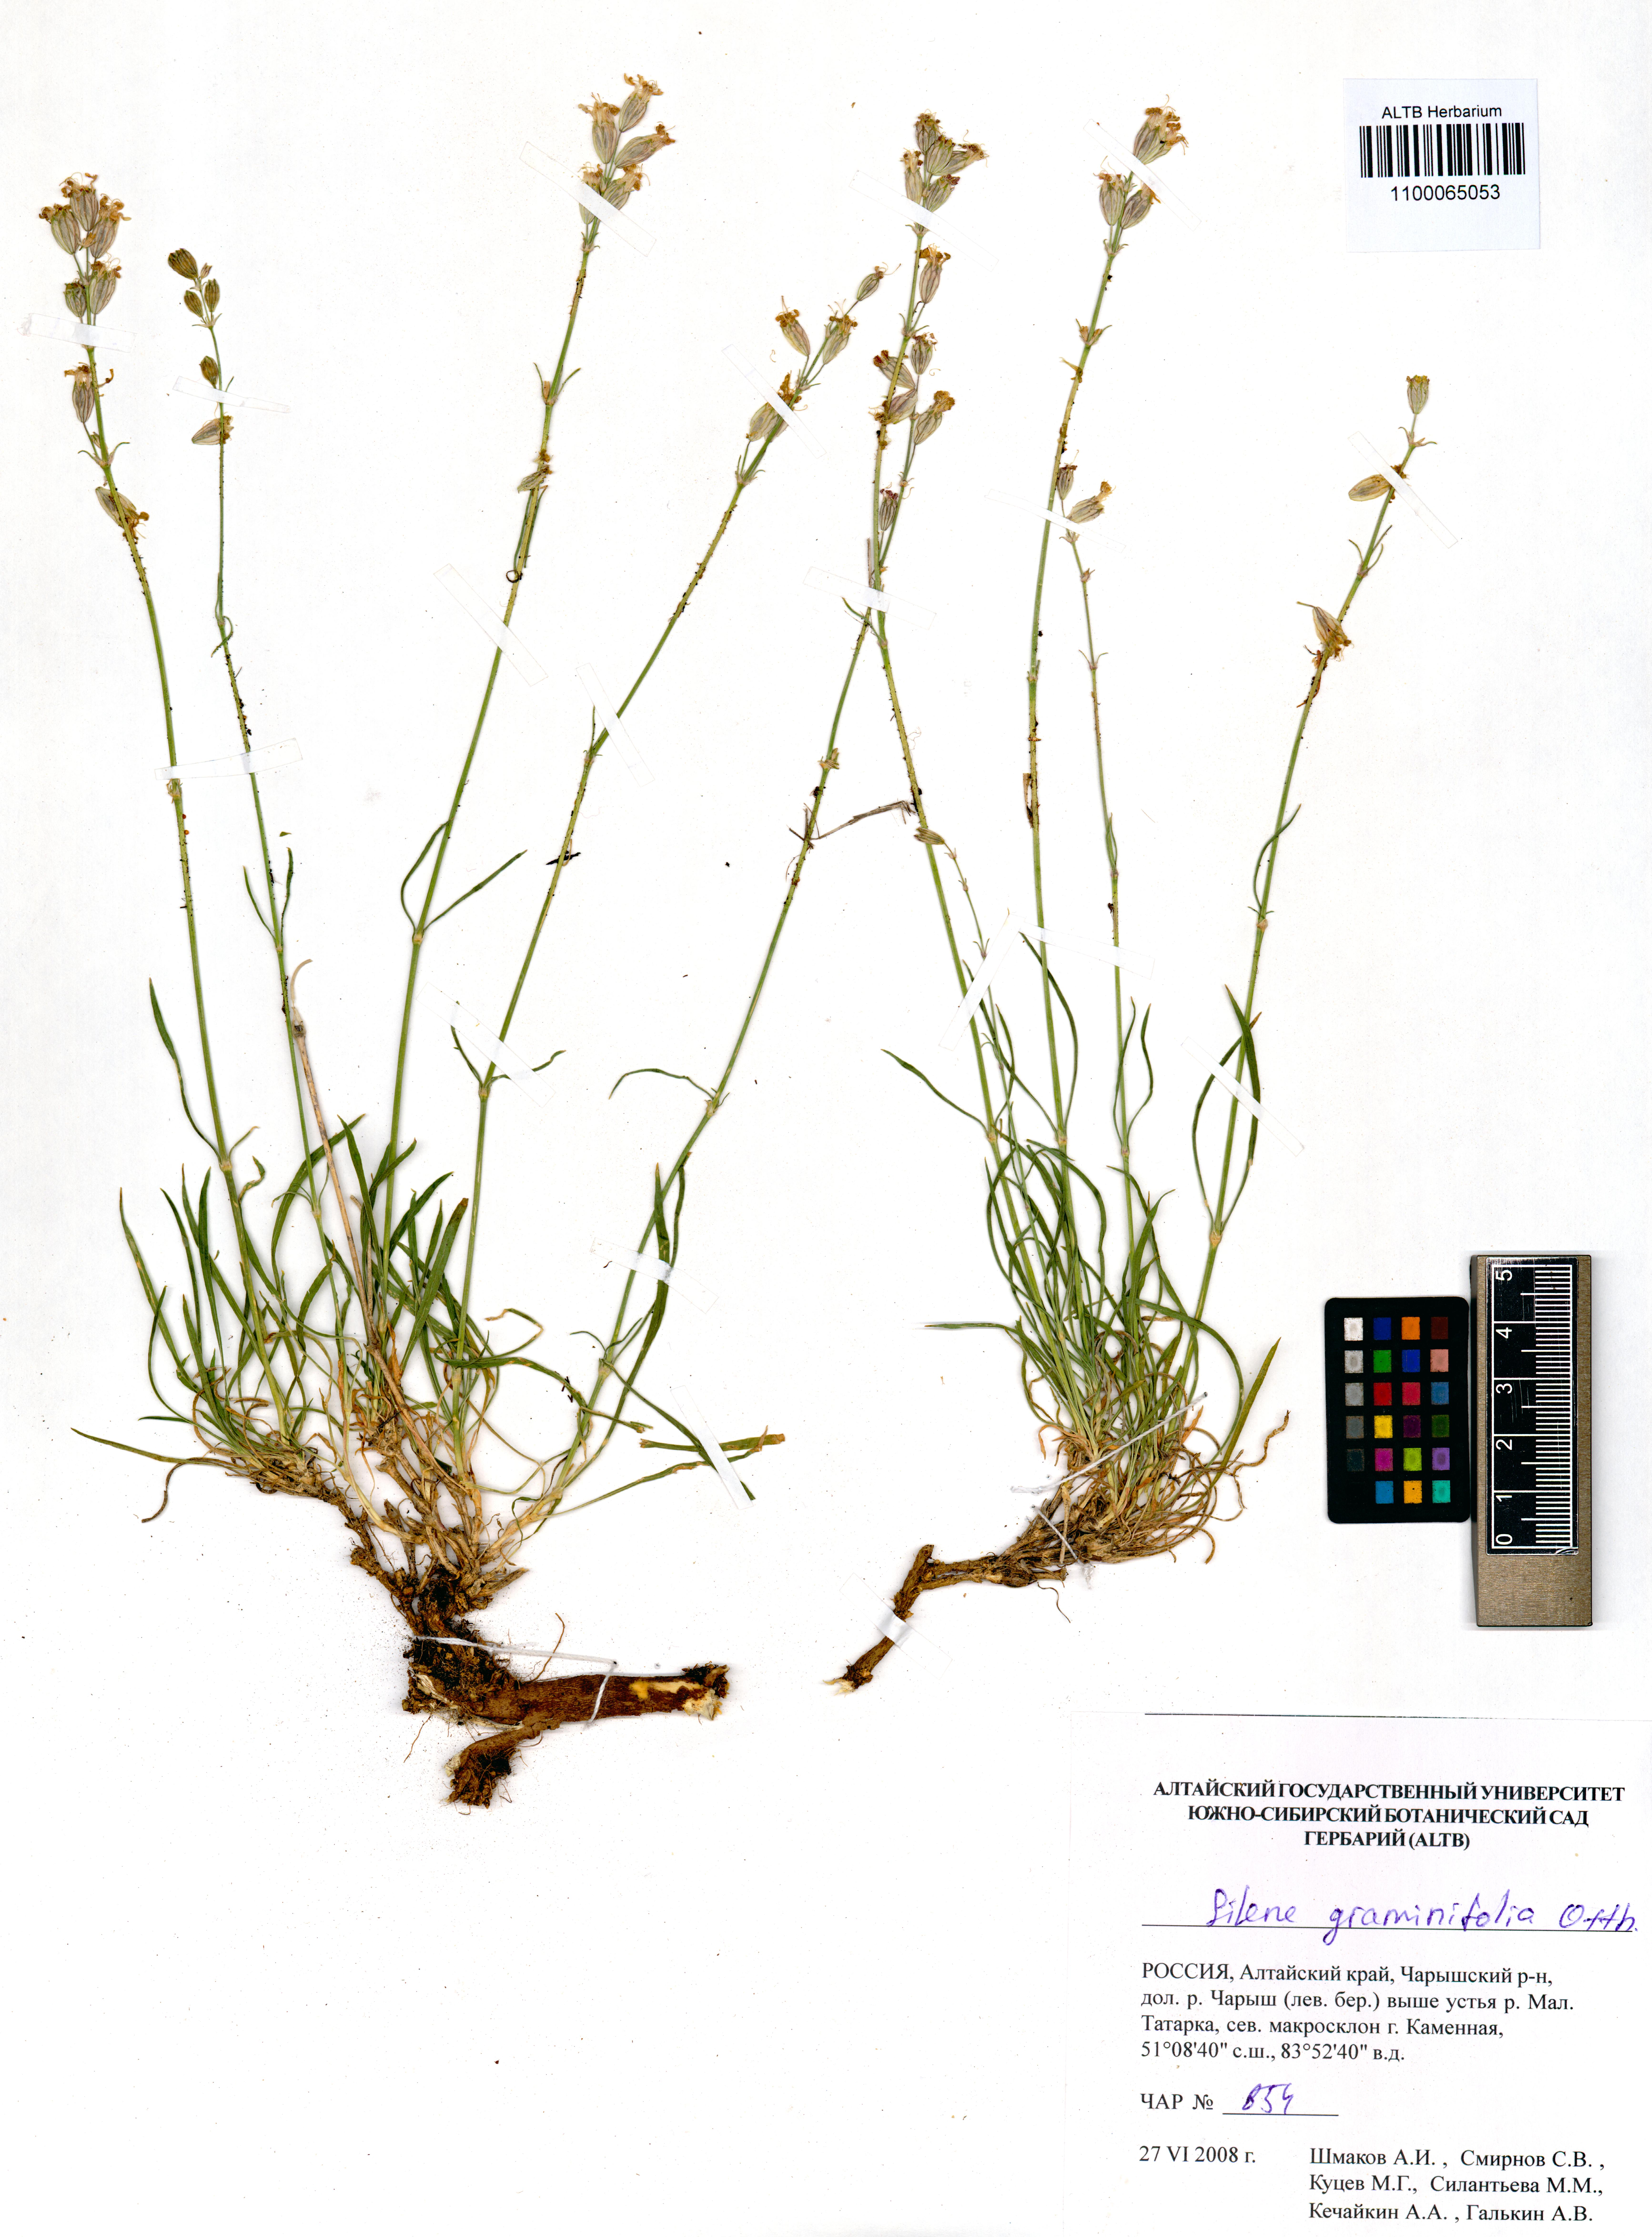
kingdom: Plantae
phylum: Tracheophyta
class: Magnoliopsida
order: Caryophyllales
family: Caryophyllaceae
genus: Silene
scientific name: Silene graminifolia
